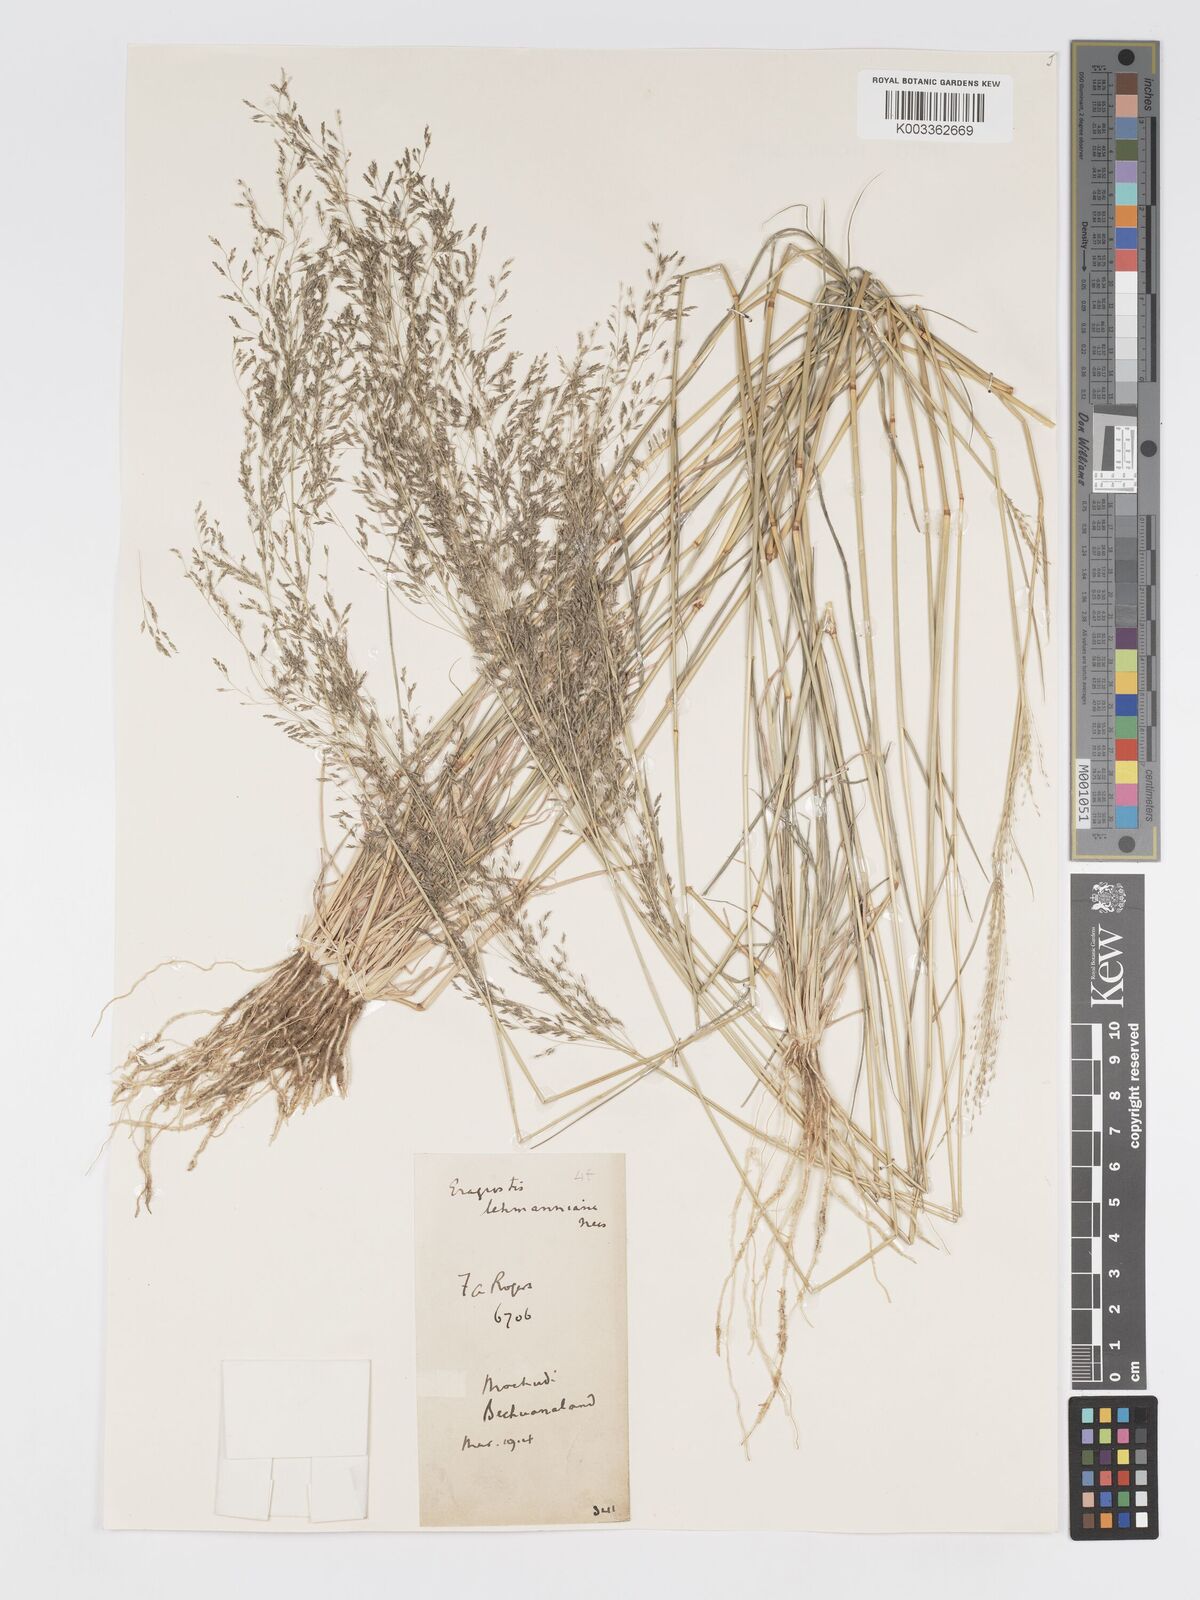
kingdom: Plantae
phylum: Tracheophyta
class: Liliopsida
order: Poales
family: Poaceae
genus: Eragrostis
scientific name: Eragrostis porosa
